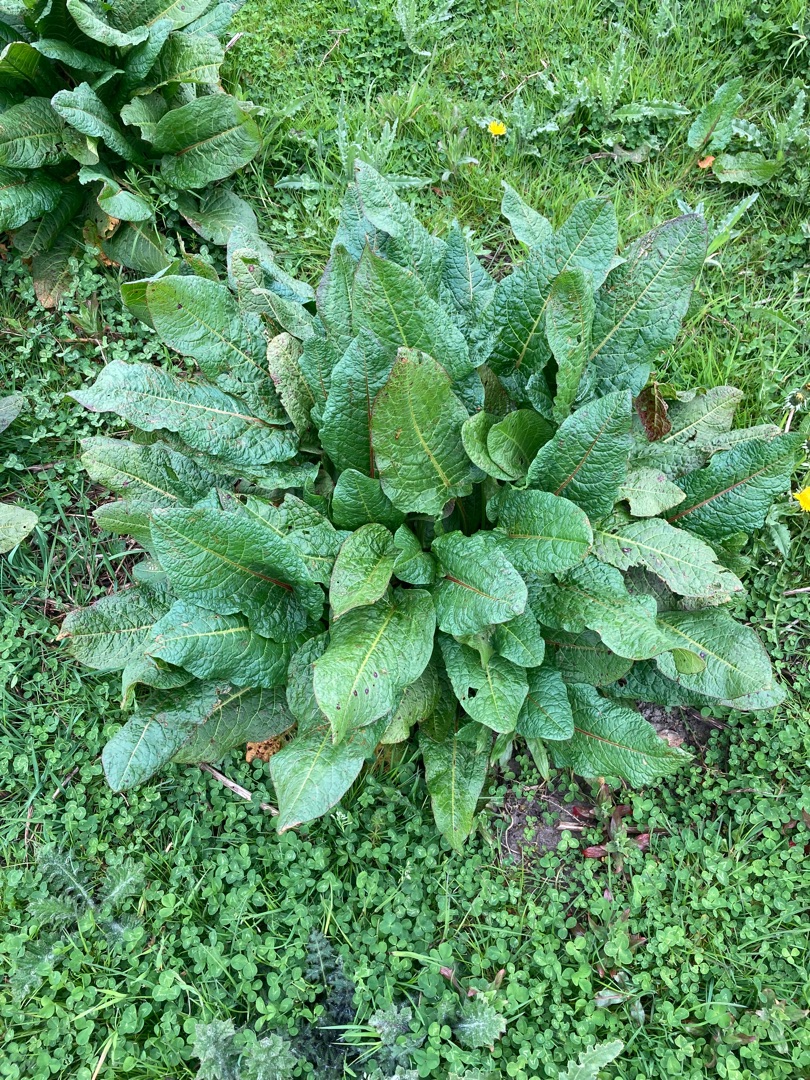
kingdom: Plantae
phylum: Tracheophyta
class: Magnoliopsida
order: Caryophyllales
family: Polygonaceae
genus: Rumex
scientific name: Rumex obtusifolius
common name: Butbladet skræppe
